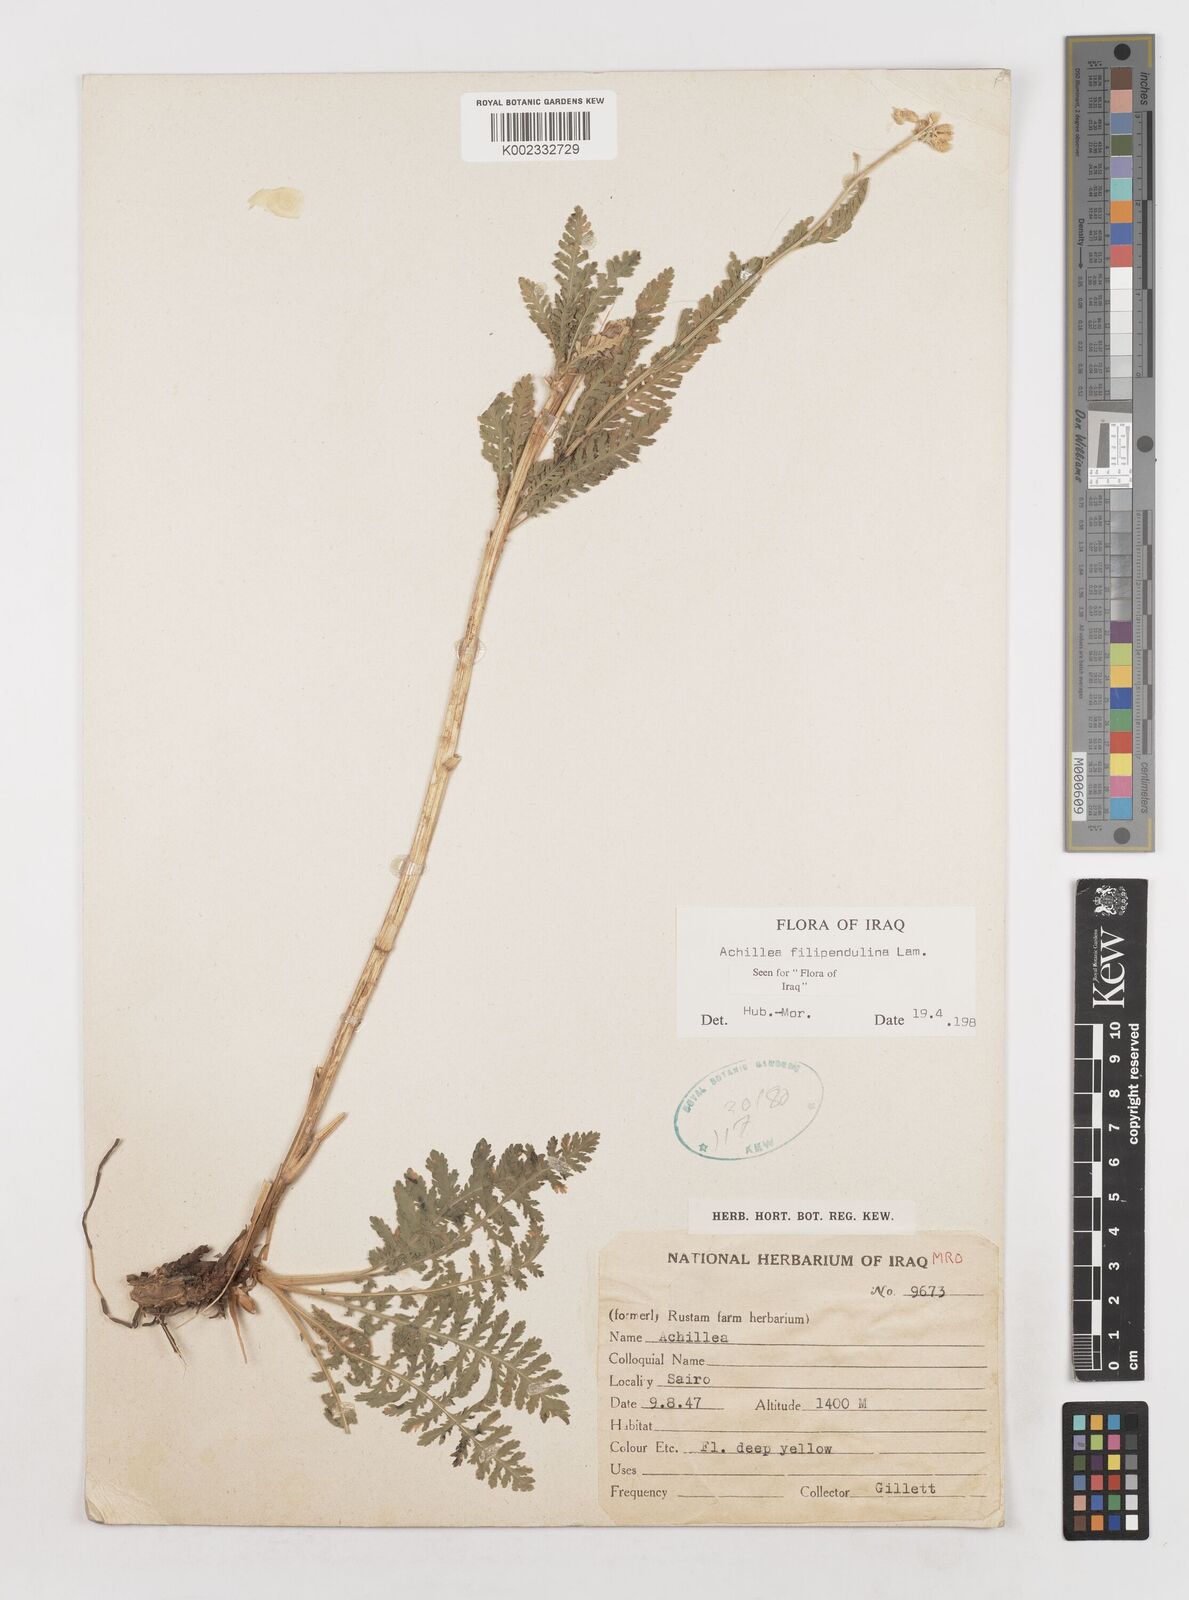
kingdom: Plantae
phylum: Tracheophyta
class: Magnoliopsida
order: Asterales
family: Asteraceae
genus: Achillea
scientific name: Achillea filipendulina
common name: Fernleaf yarrow
